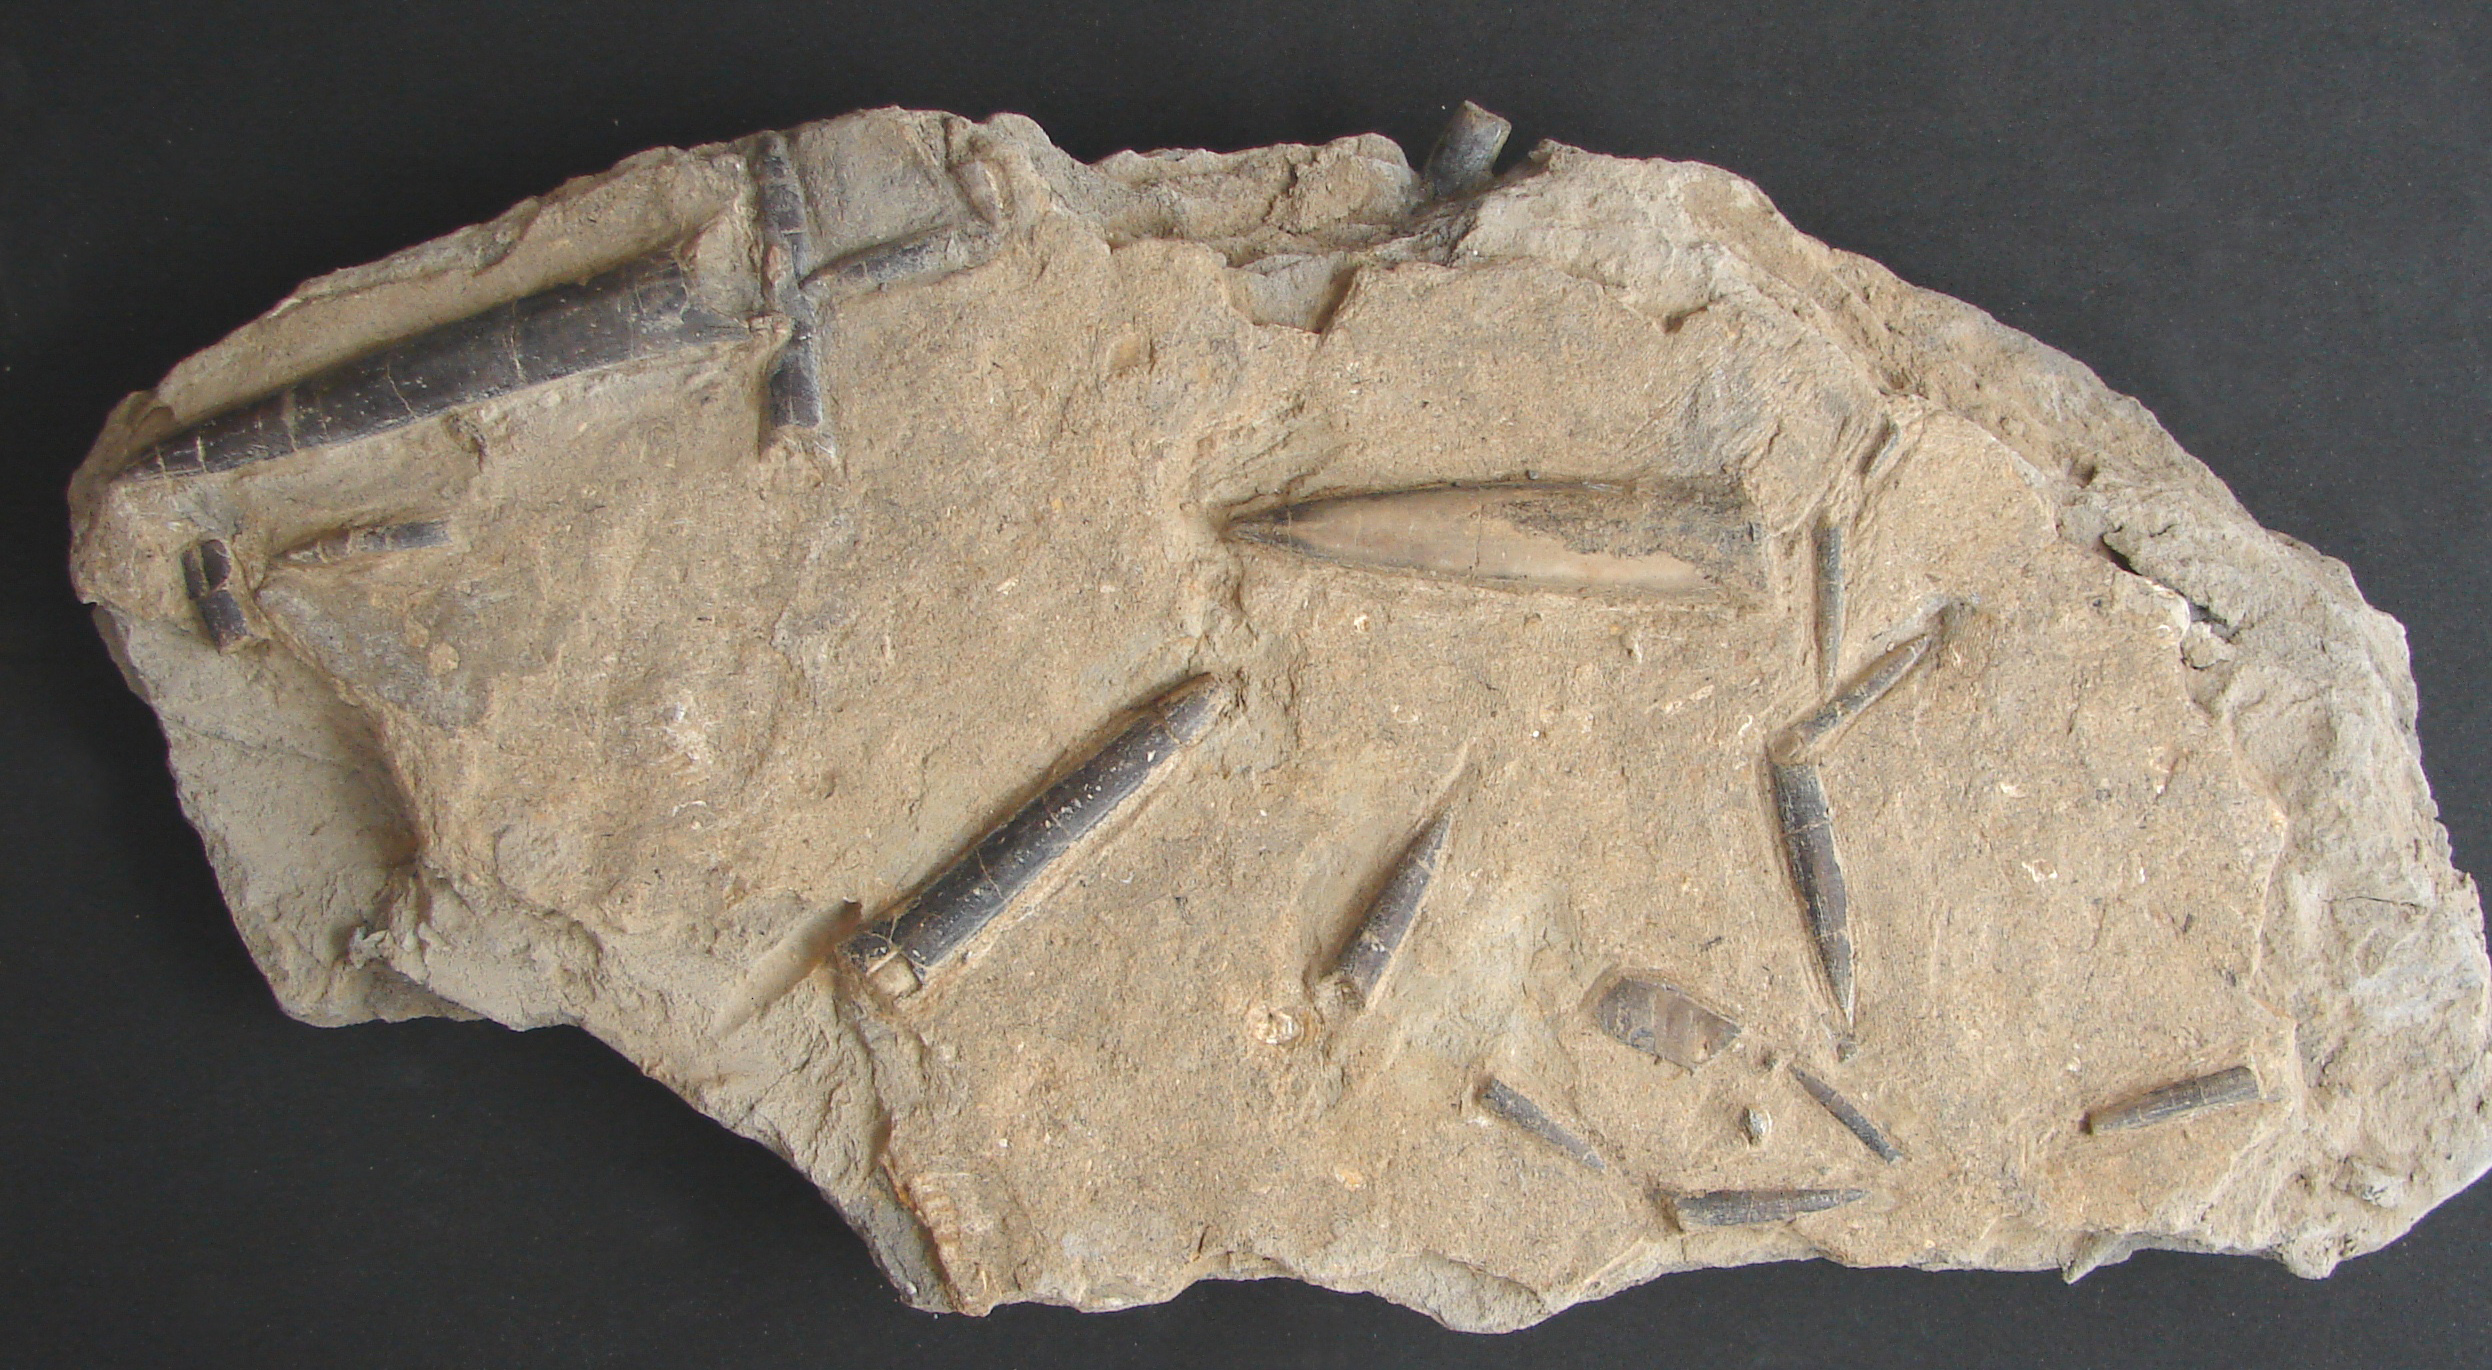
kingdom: Animalia
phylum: Mollusca
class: Cephalopoda
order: Belemnitida
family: Megateuthididae
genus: Acrocoelites
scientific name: Acrocoelites
